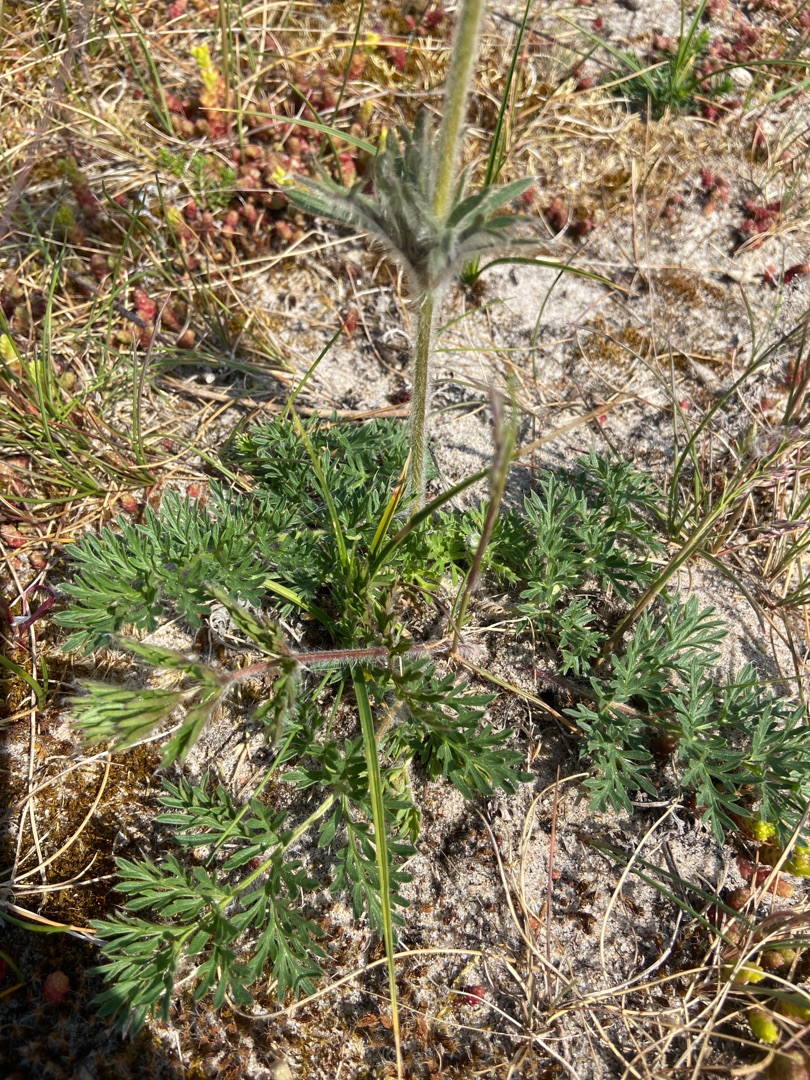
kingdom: Plantae
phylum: Tracheophyta
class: Magnoliopsida
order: Ranunculales
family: Ranunculaceae
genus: Pulsatilla
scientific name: Pulsatilla pratensis
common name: Nikkende kobjælde
